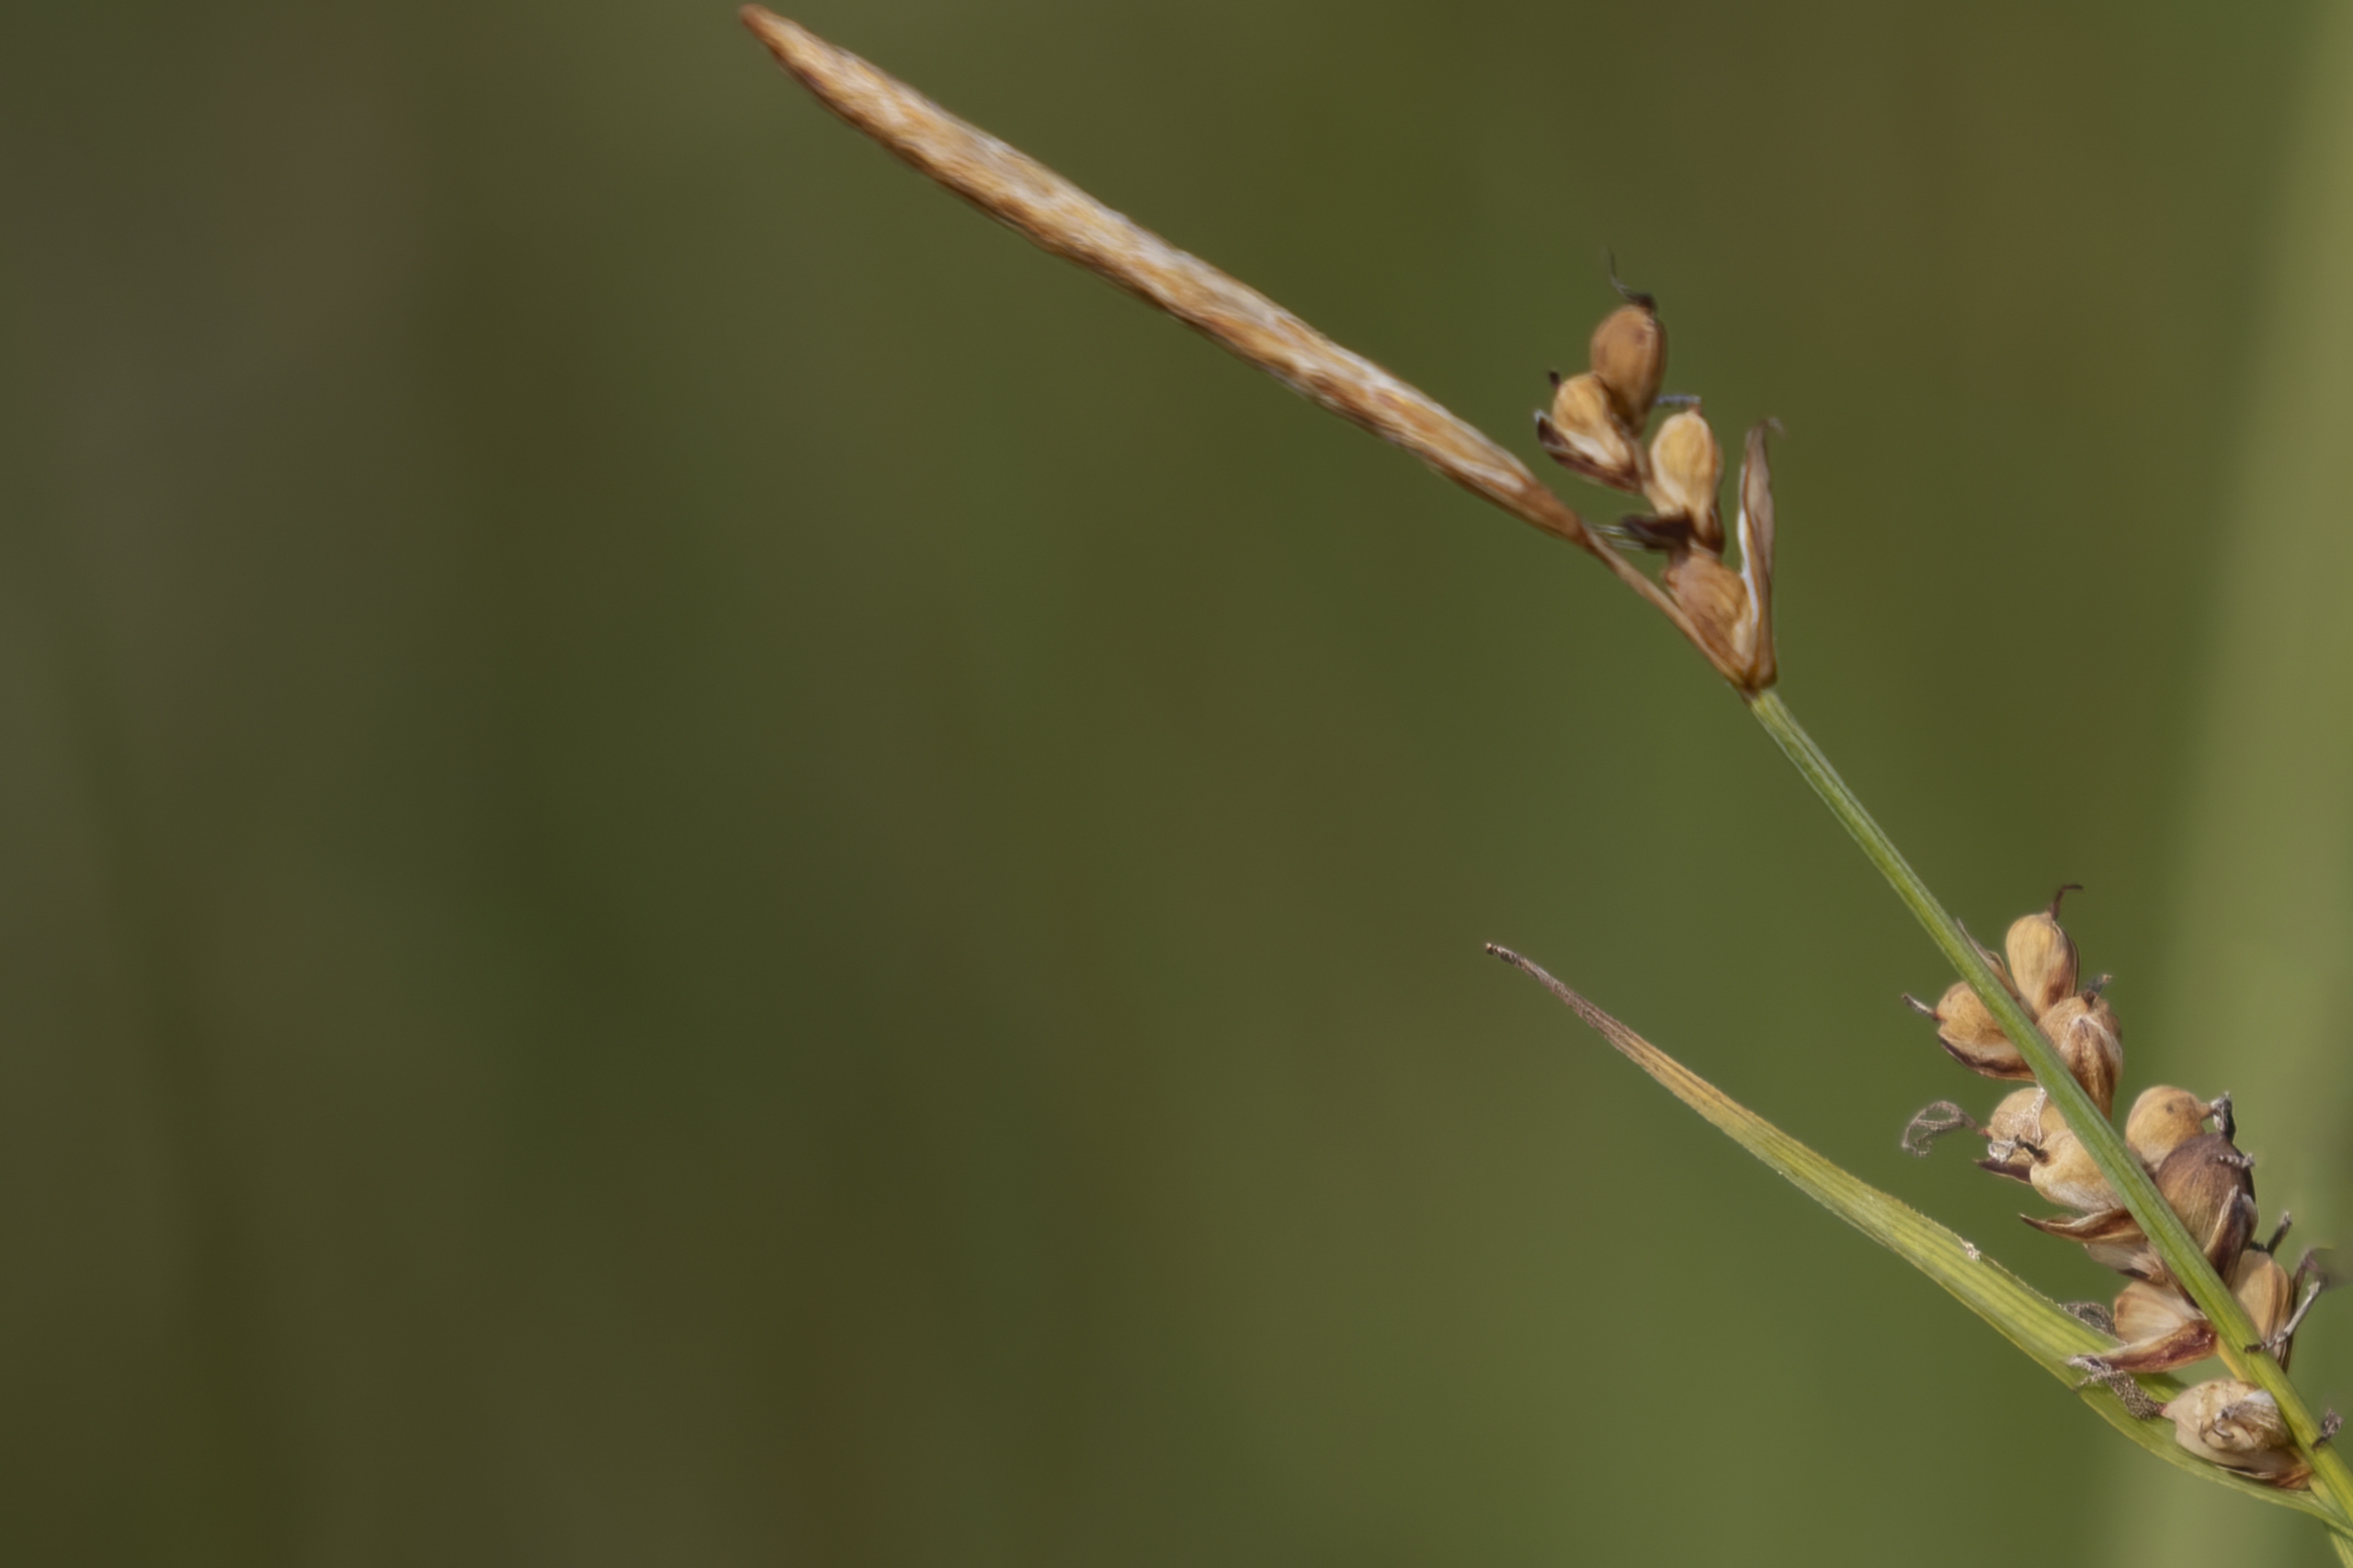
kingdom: Plantae
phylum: Tracheophyta
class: Liliopsida
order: Poales
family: Cyperaceae
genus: Carex
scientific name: Carex panicea
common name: Hirse-star
